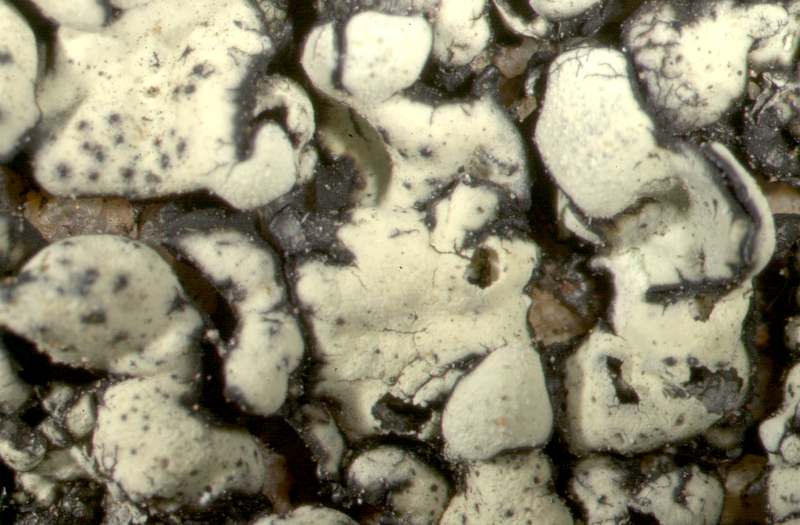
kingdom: Fungi
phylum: Ascomycota
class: Lecanoromycetes
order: Lecanorales
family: Parmeliaceae
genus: Namakwa
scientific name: Namakwa
